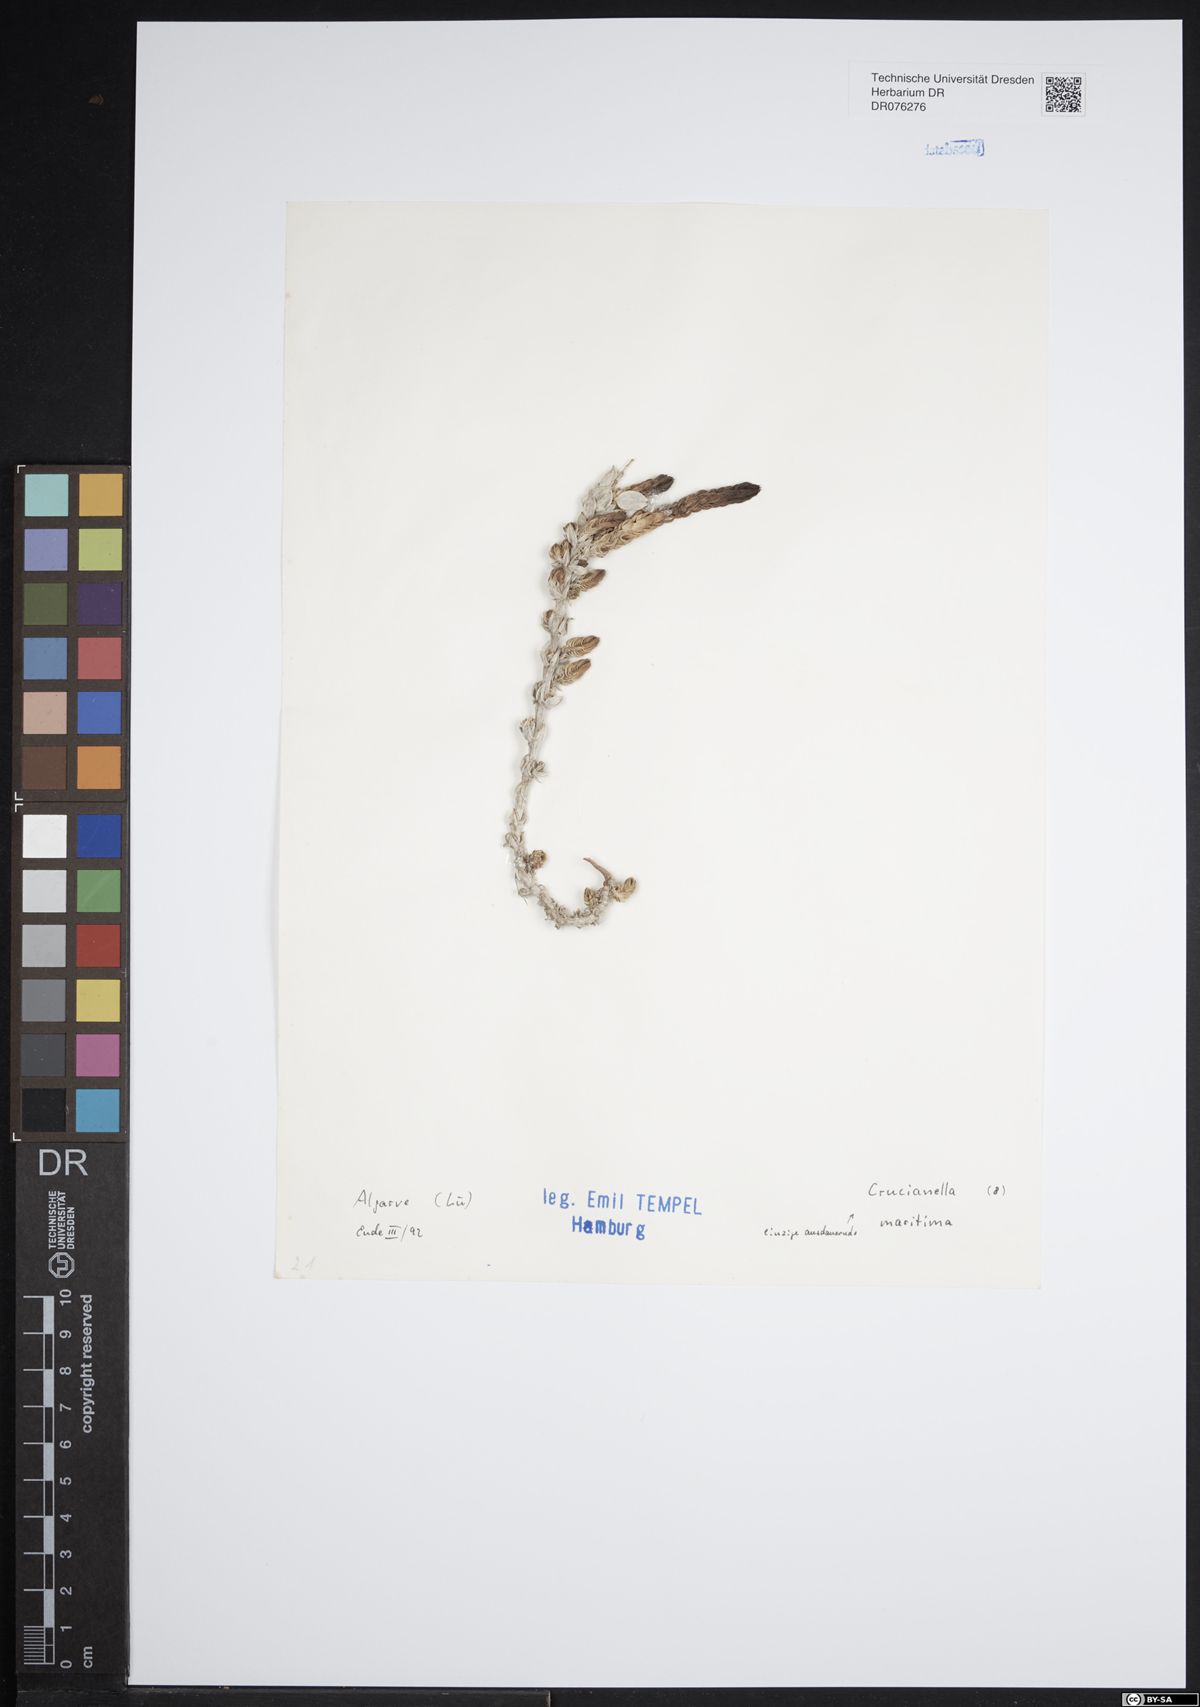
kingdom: Plantae
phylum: Tracheophyta
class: Magnoliopsida
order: Gentianales
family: Rubiaceae
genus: Crucianella
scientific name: Crucianella maritima
